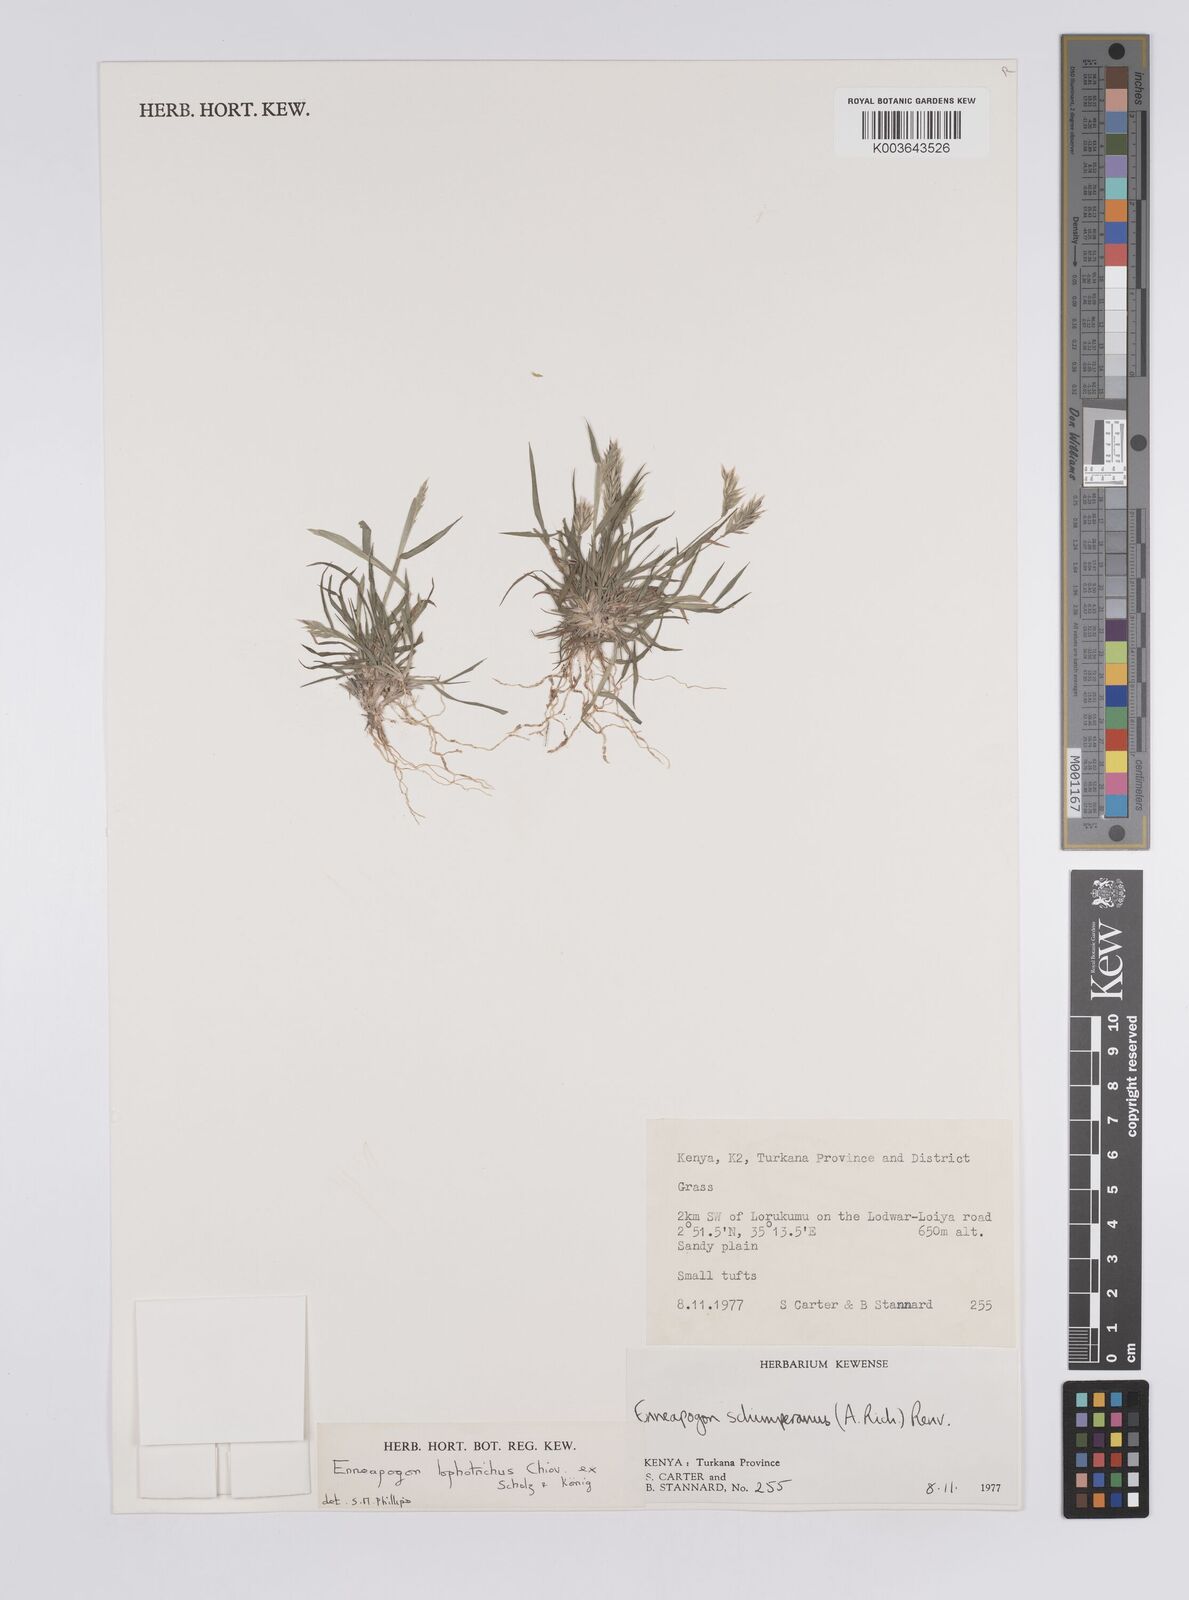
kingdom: Plantae
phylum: Tracheophyta
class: Liliopsida
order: Poales
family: Poaceae
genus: Enneapogon
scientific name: Enneapogon lophotrichus
